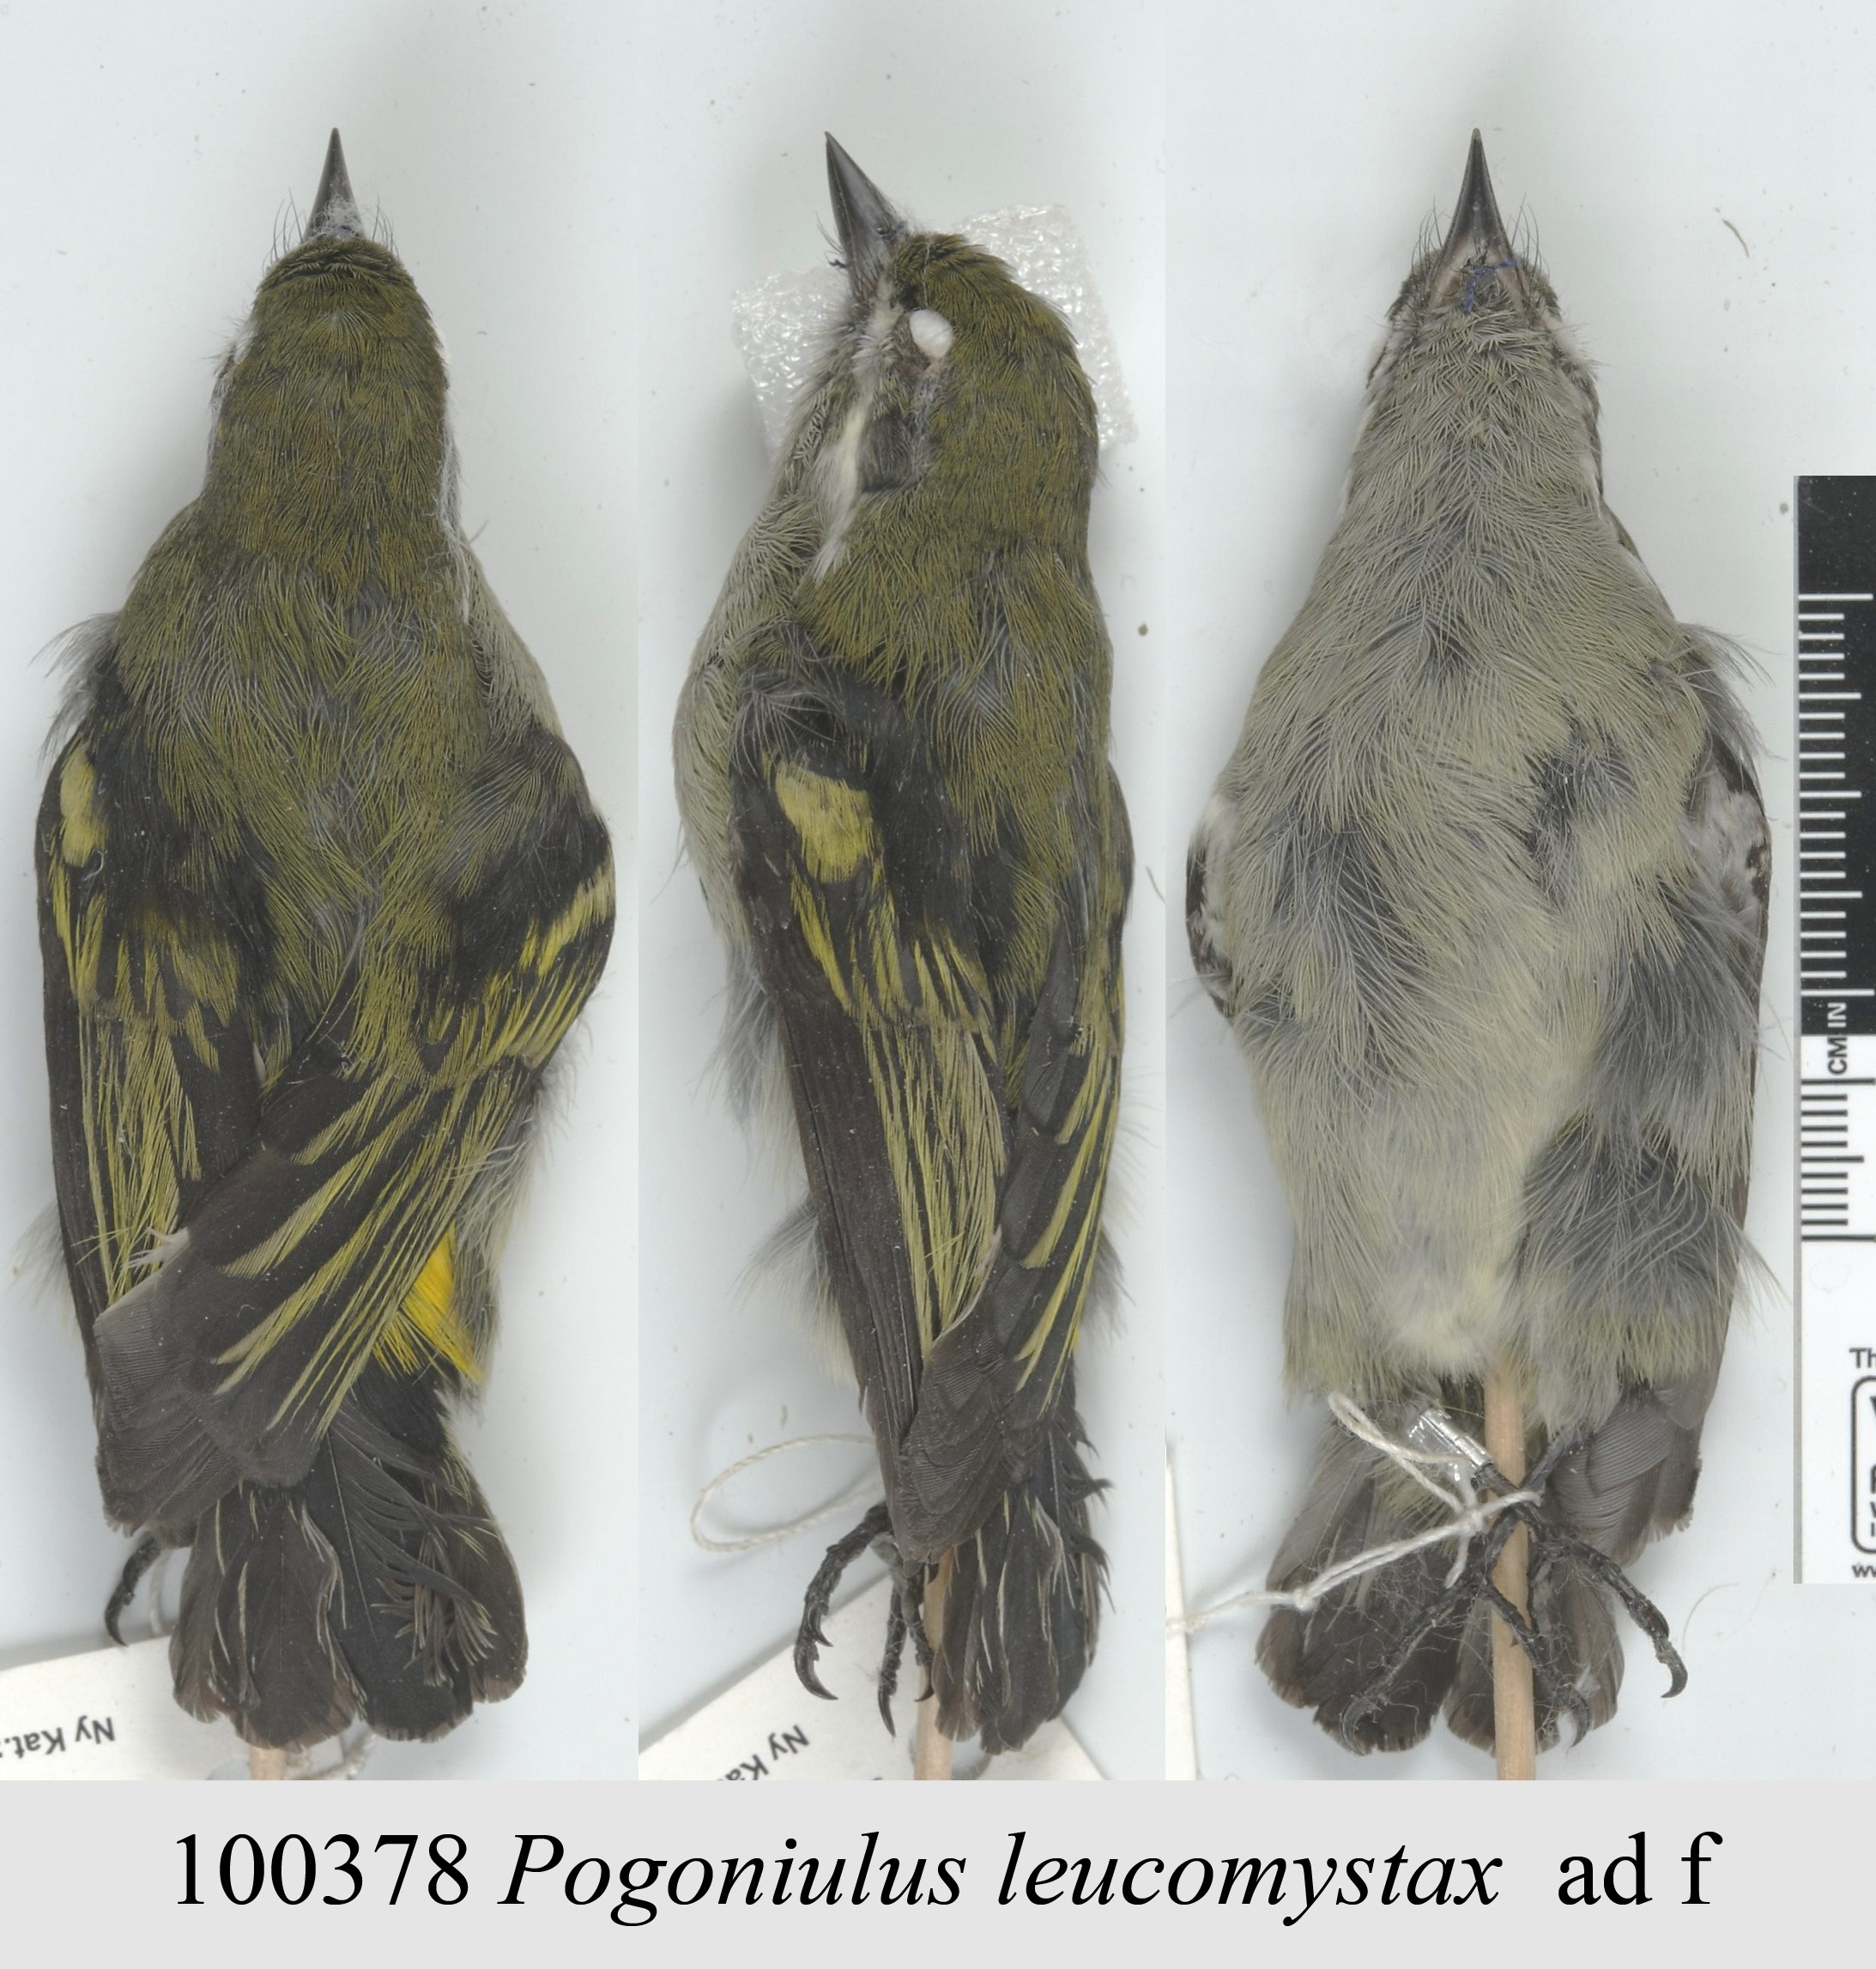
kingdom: Animalia
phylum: Chordata
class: Aves
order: Piciformes
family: Lybiidae
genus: Pogoniulus
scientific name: Pogoniulus leucomystax
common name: Moustached tinkerbird
